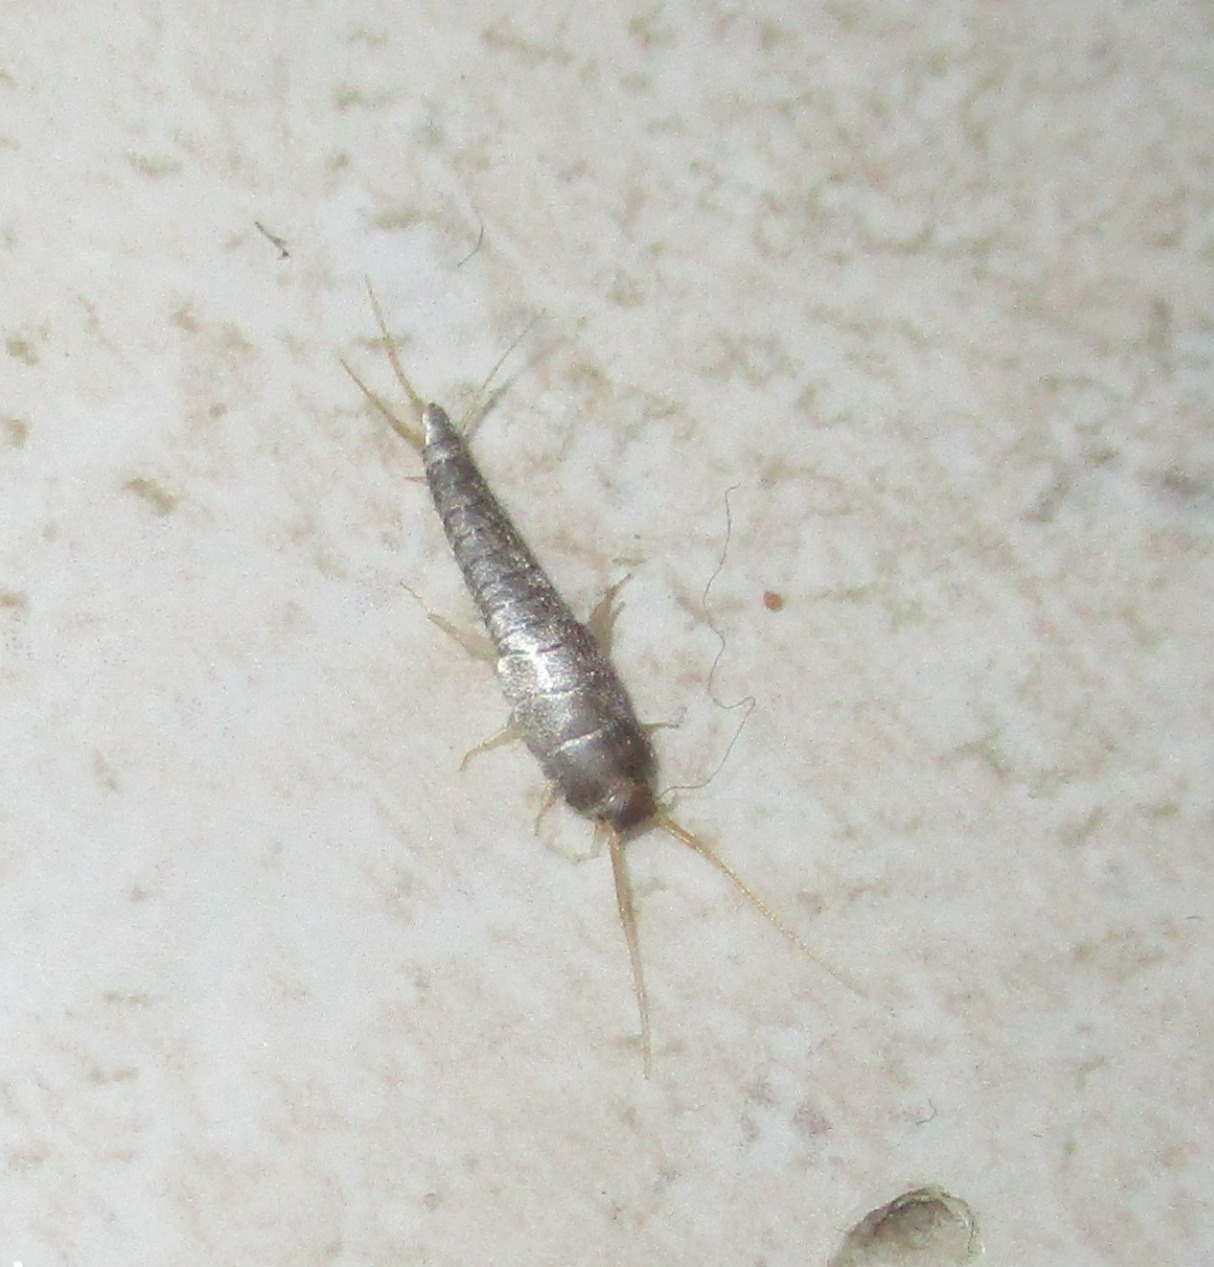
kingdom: Animalia
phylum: Arthropoda
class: Insecta
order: Zygentoma
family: Lepismatidae
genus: Lepisma
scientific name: Lepisma saccharinum
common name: Almindelig sølvkræ
